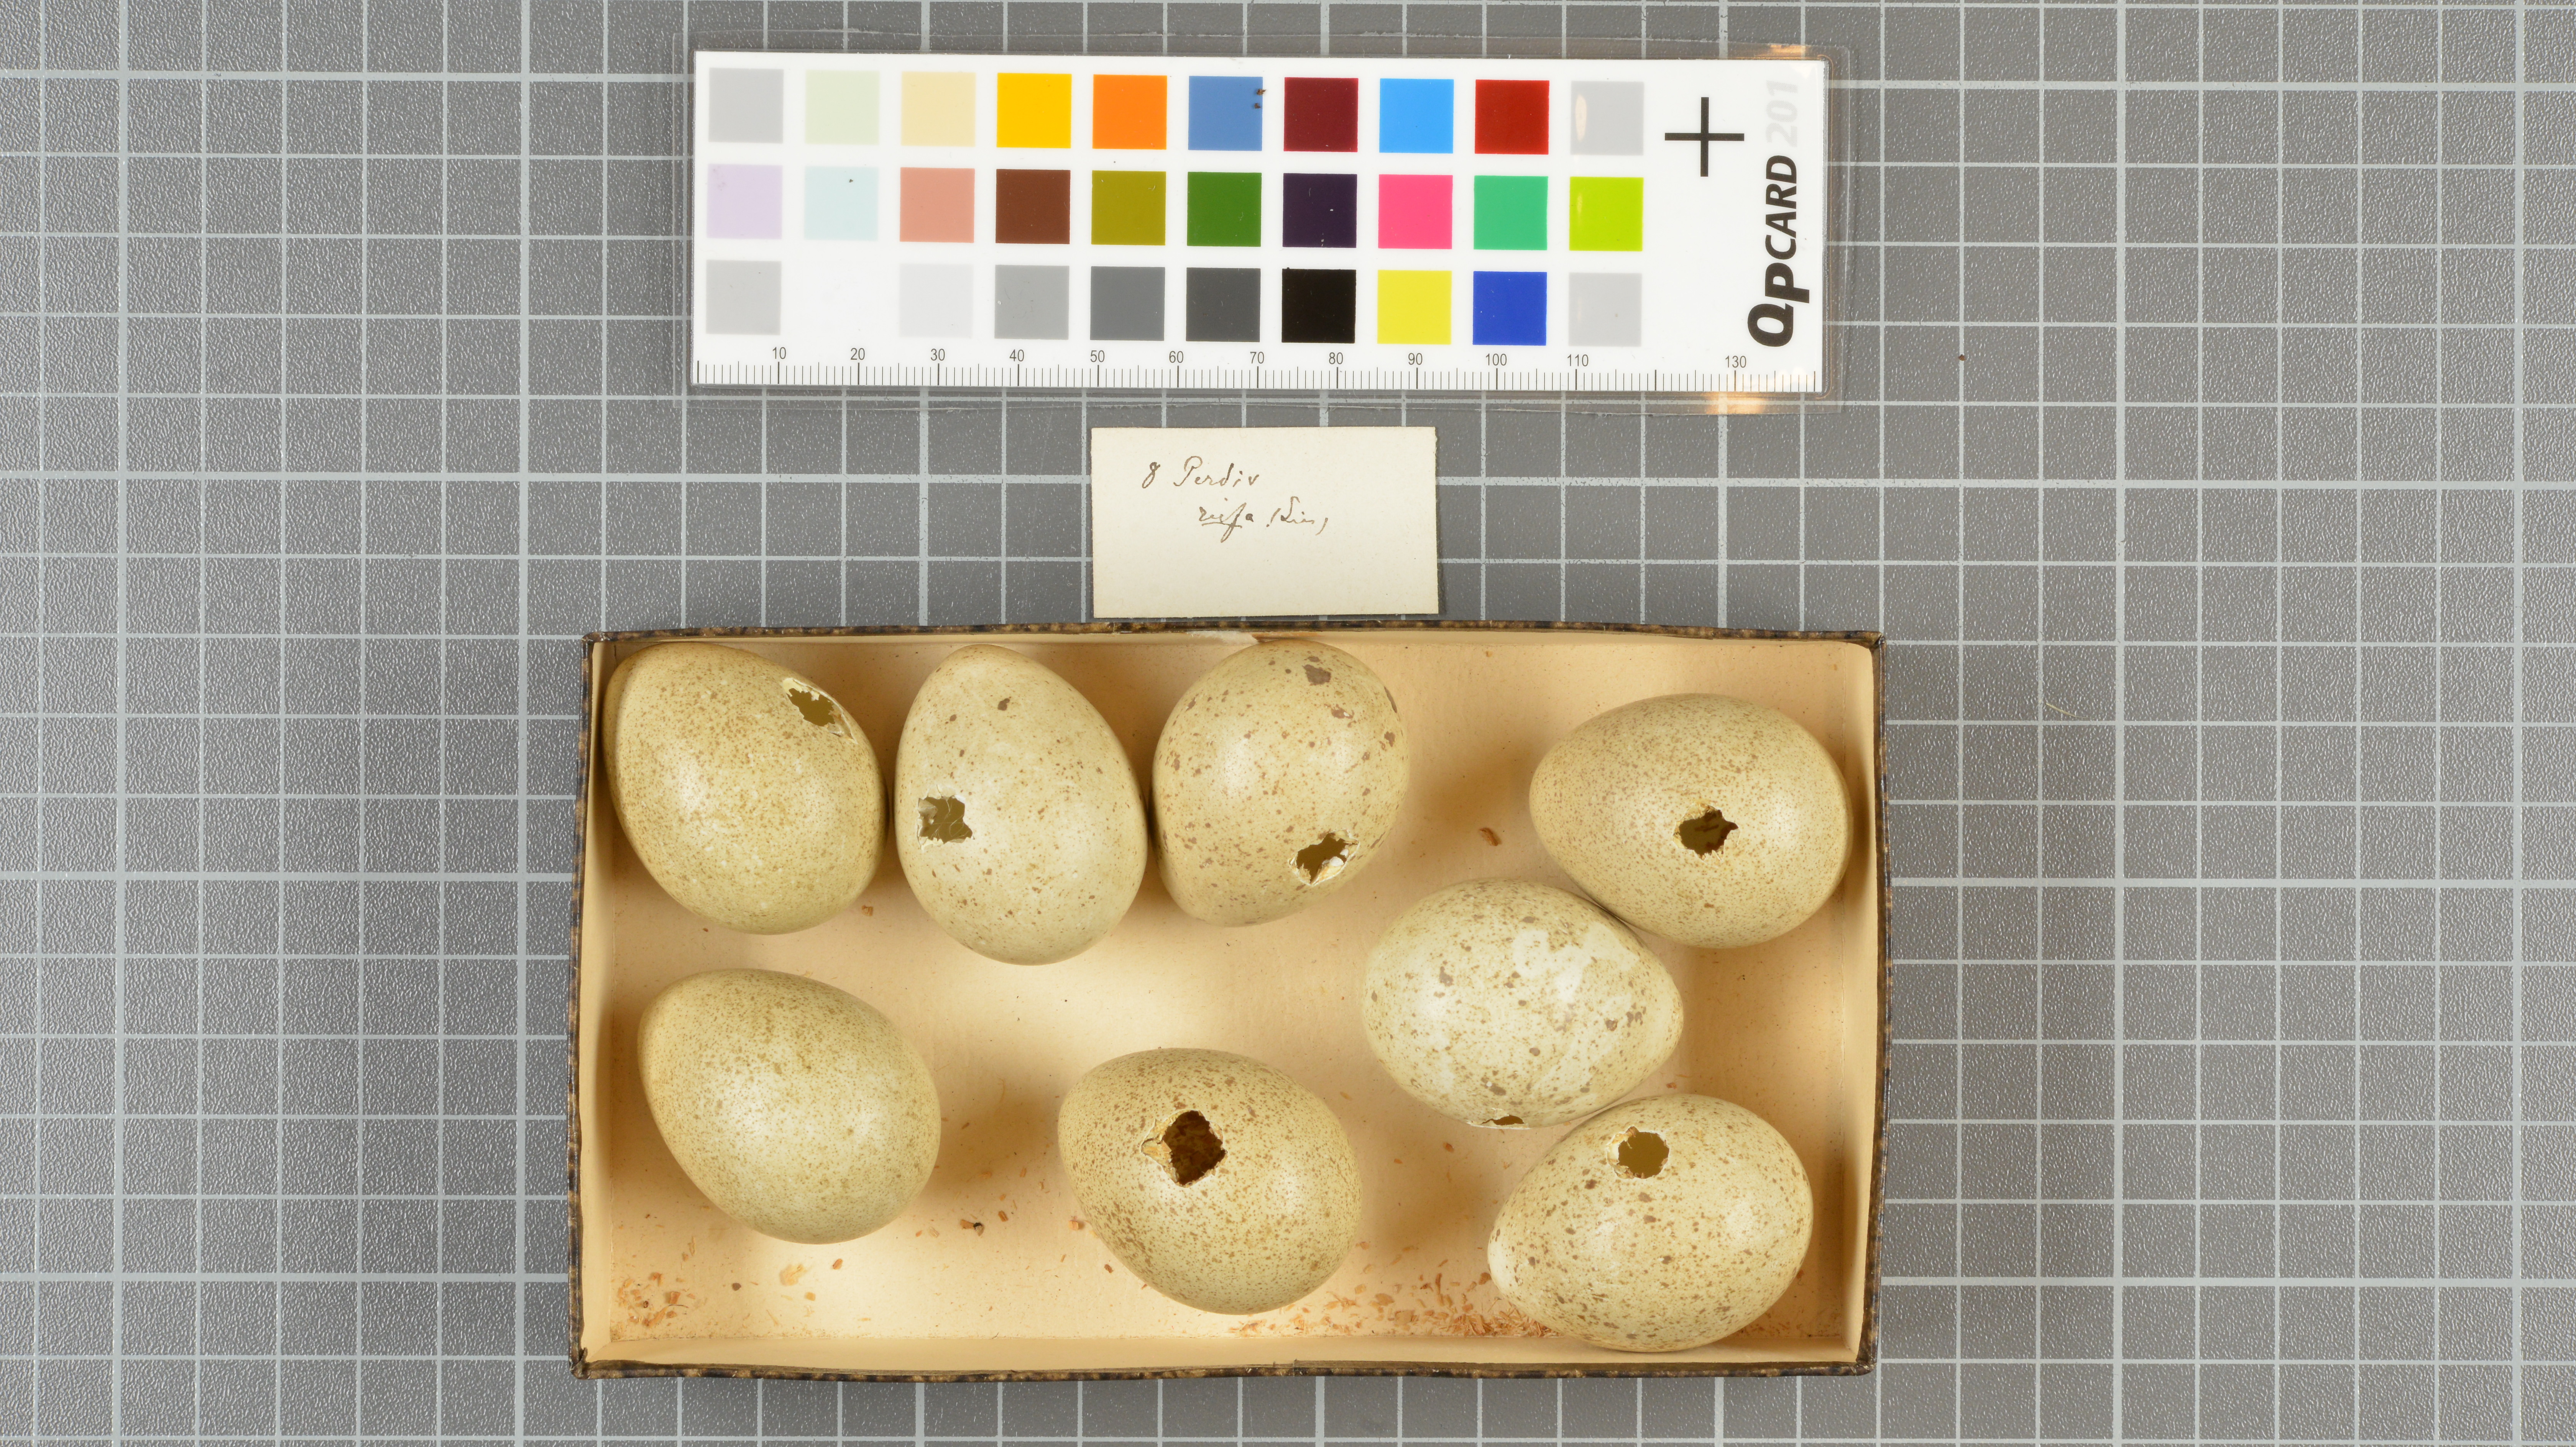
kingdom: Animalia
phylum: Chordata
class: Aves
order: Galliformes
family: Phasianidae
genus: Alectoris
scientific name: Alectoris rufa
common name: Red-legged partridge
